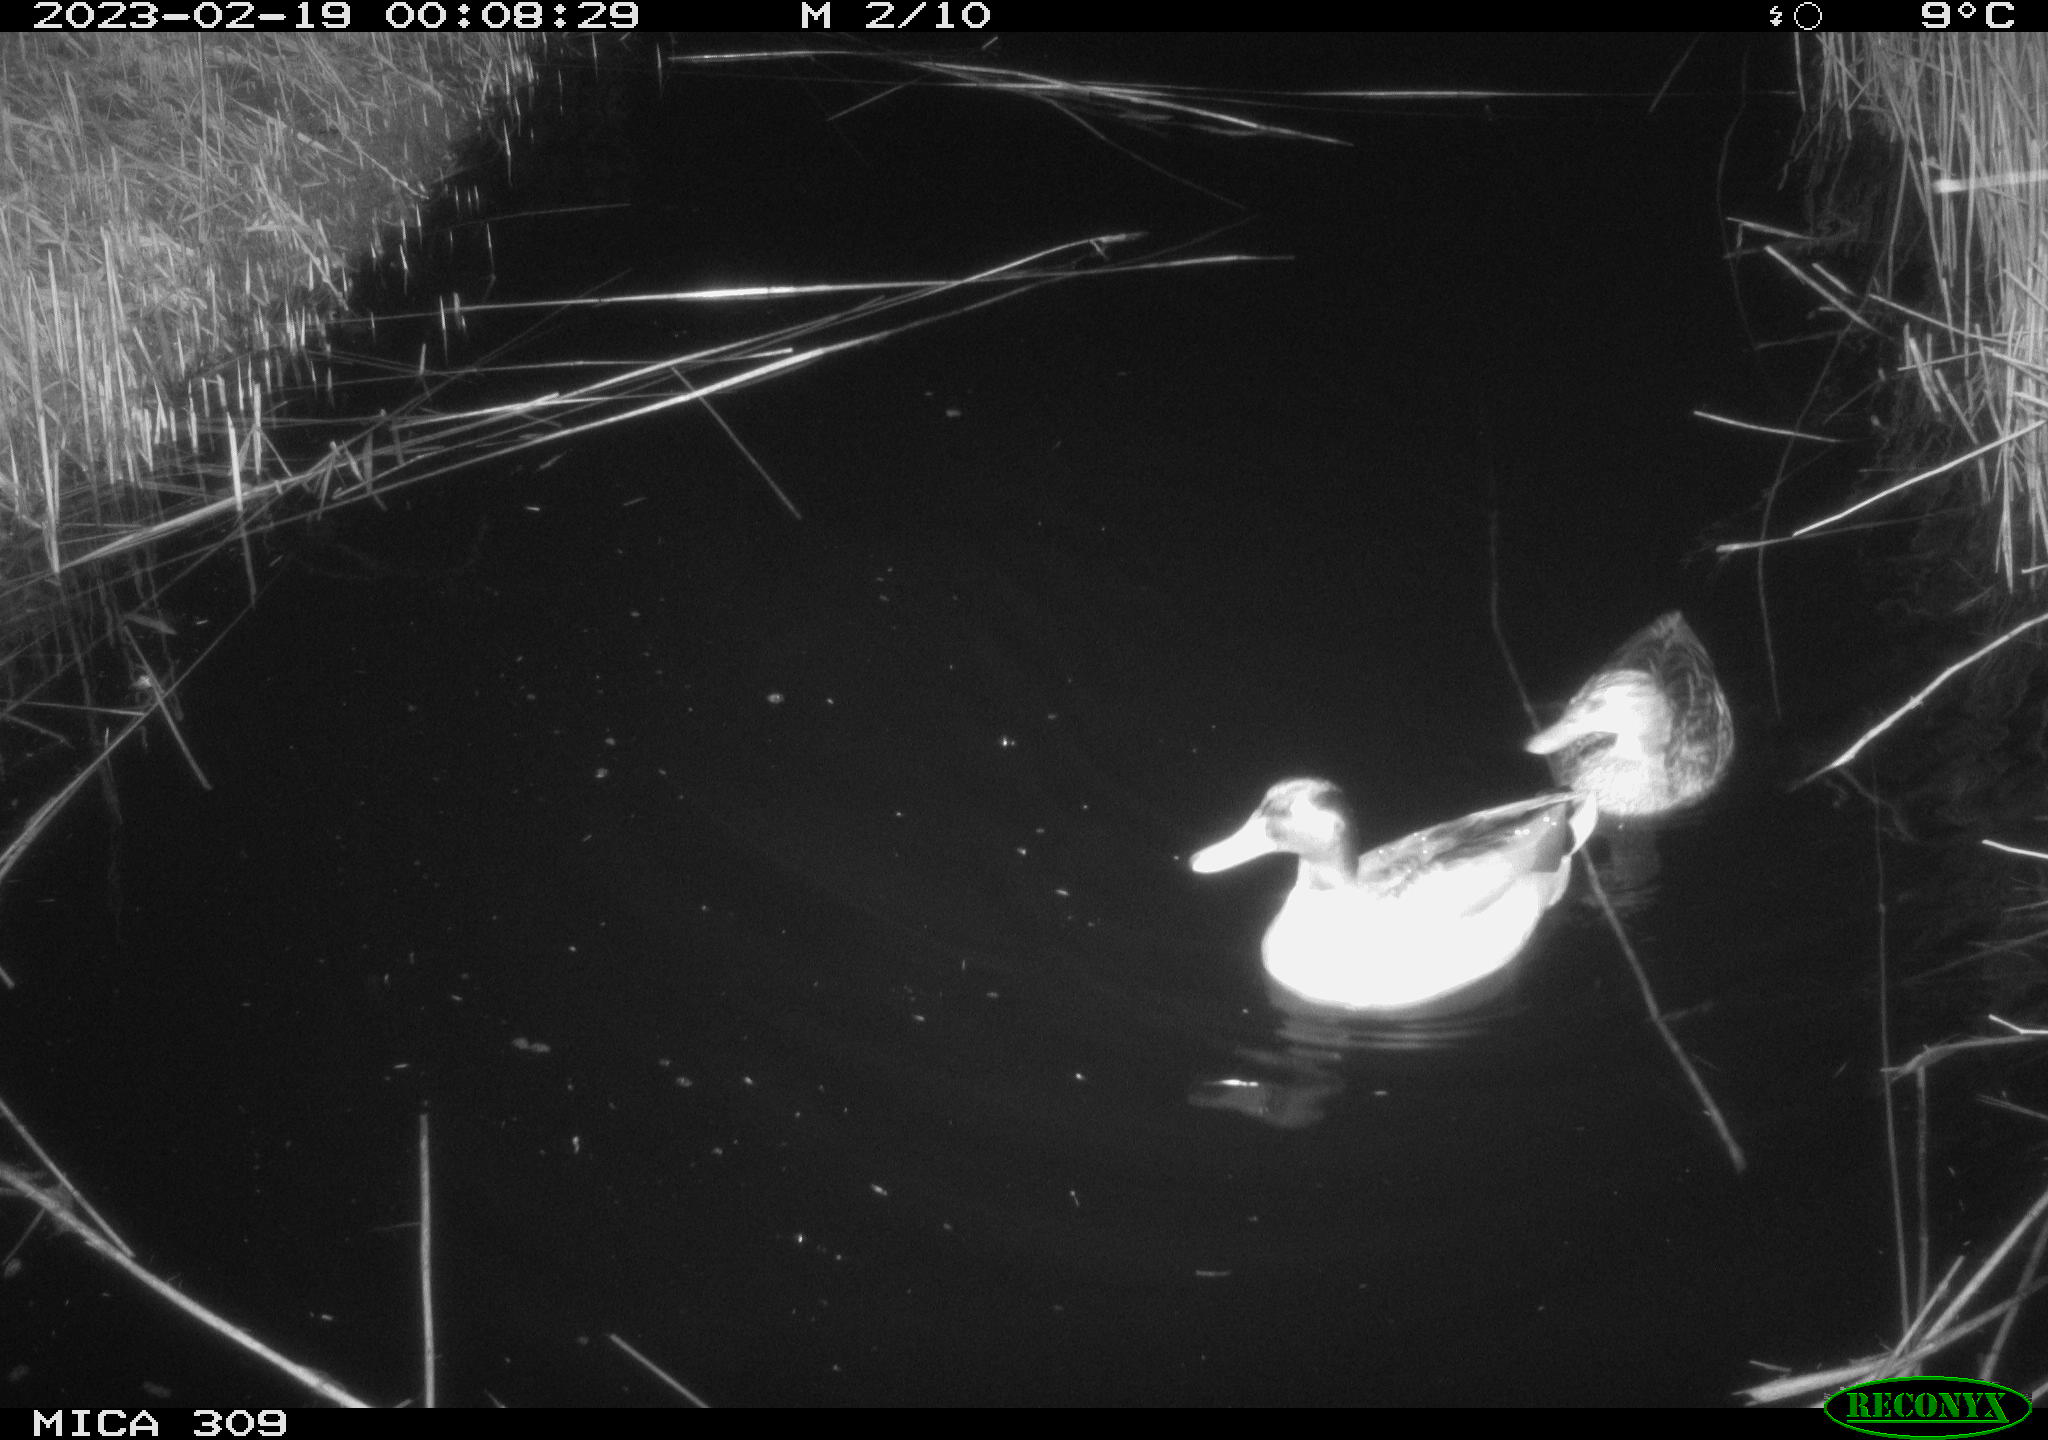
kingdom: Animalia
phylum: Chordata
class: Aves
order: Anseriformes
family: Anatidae
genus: Anas
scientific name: Anas
